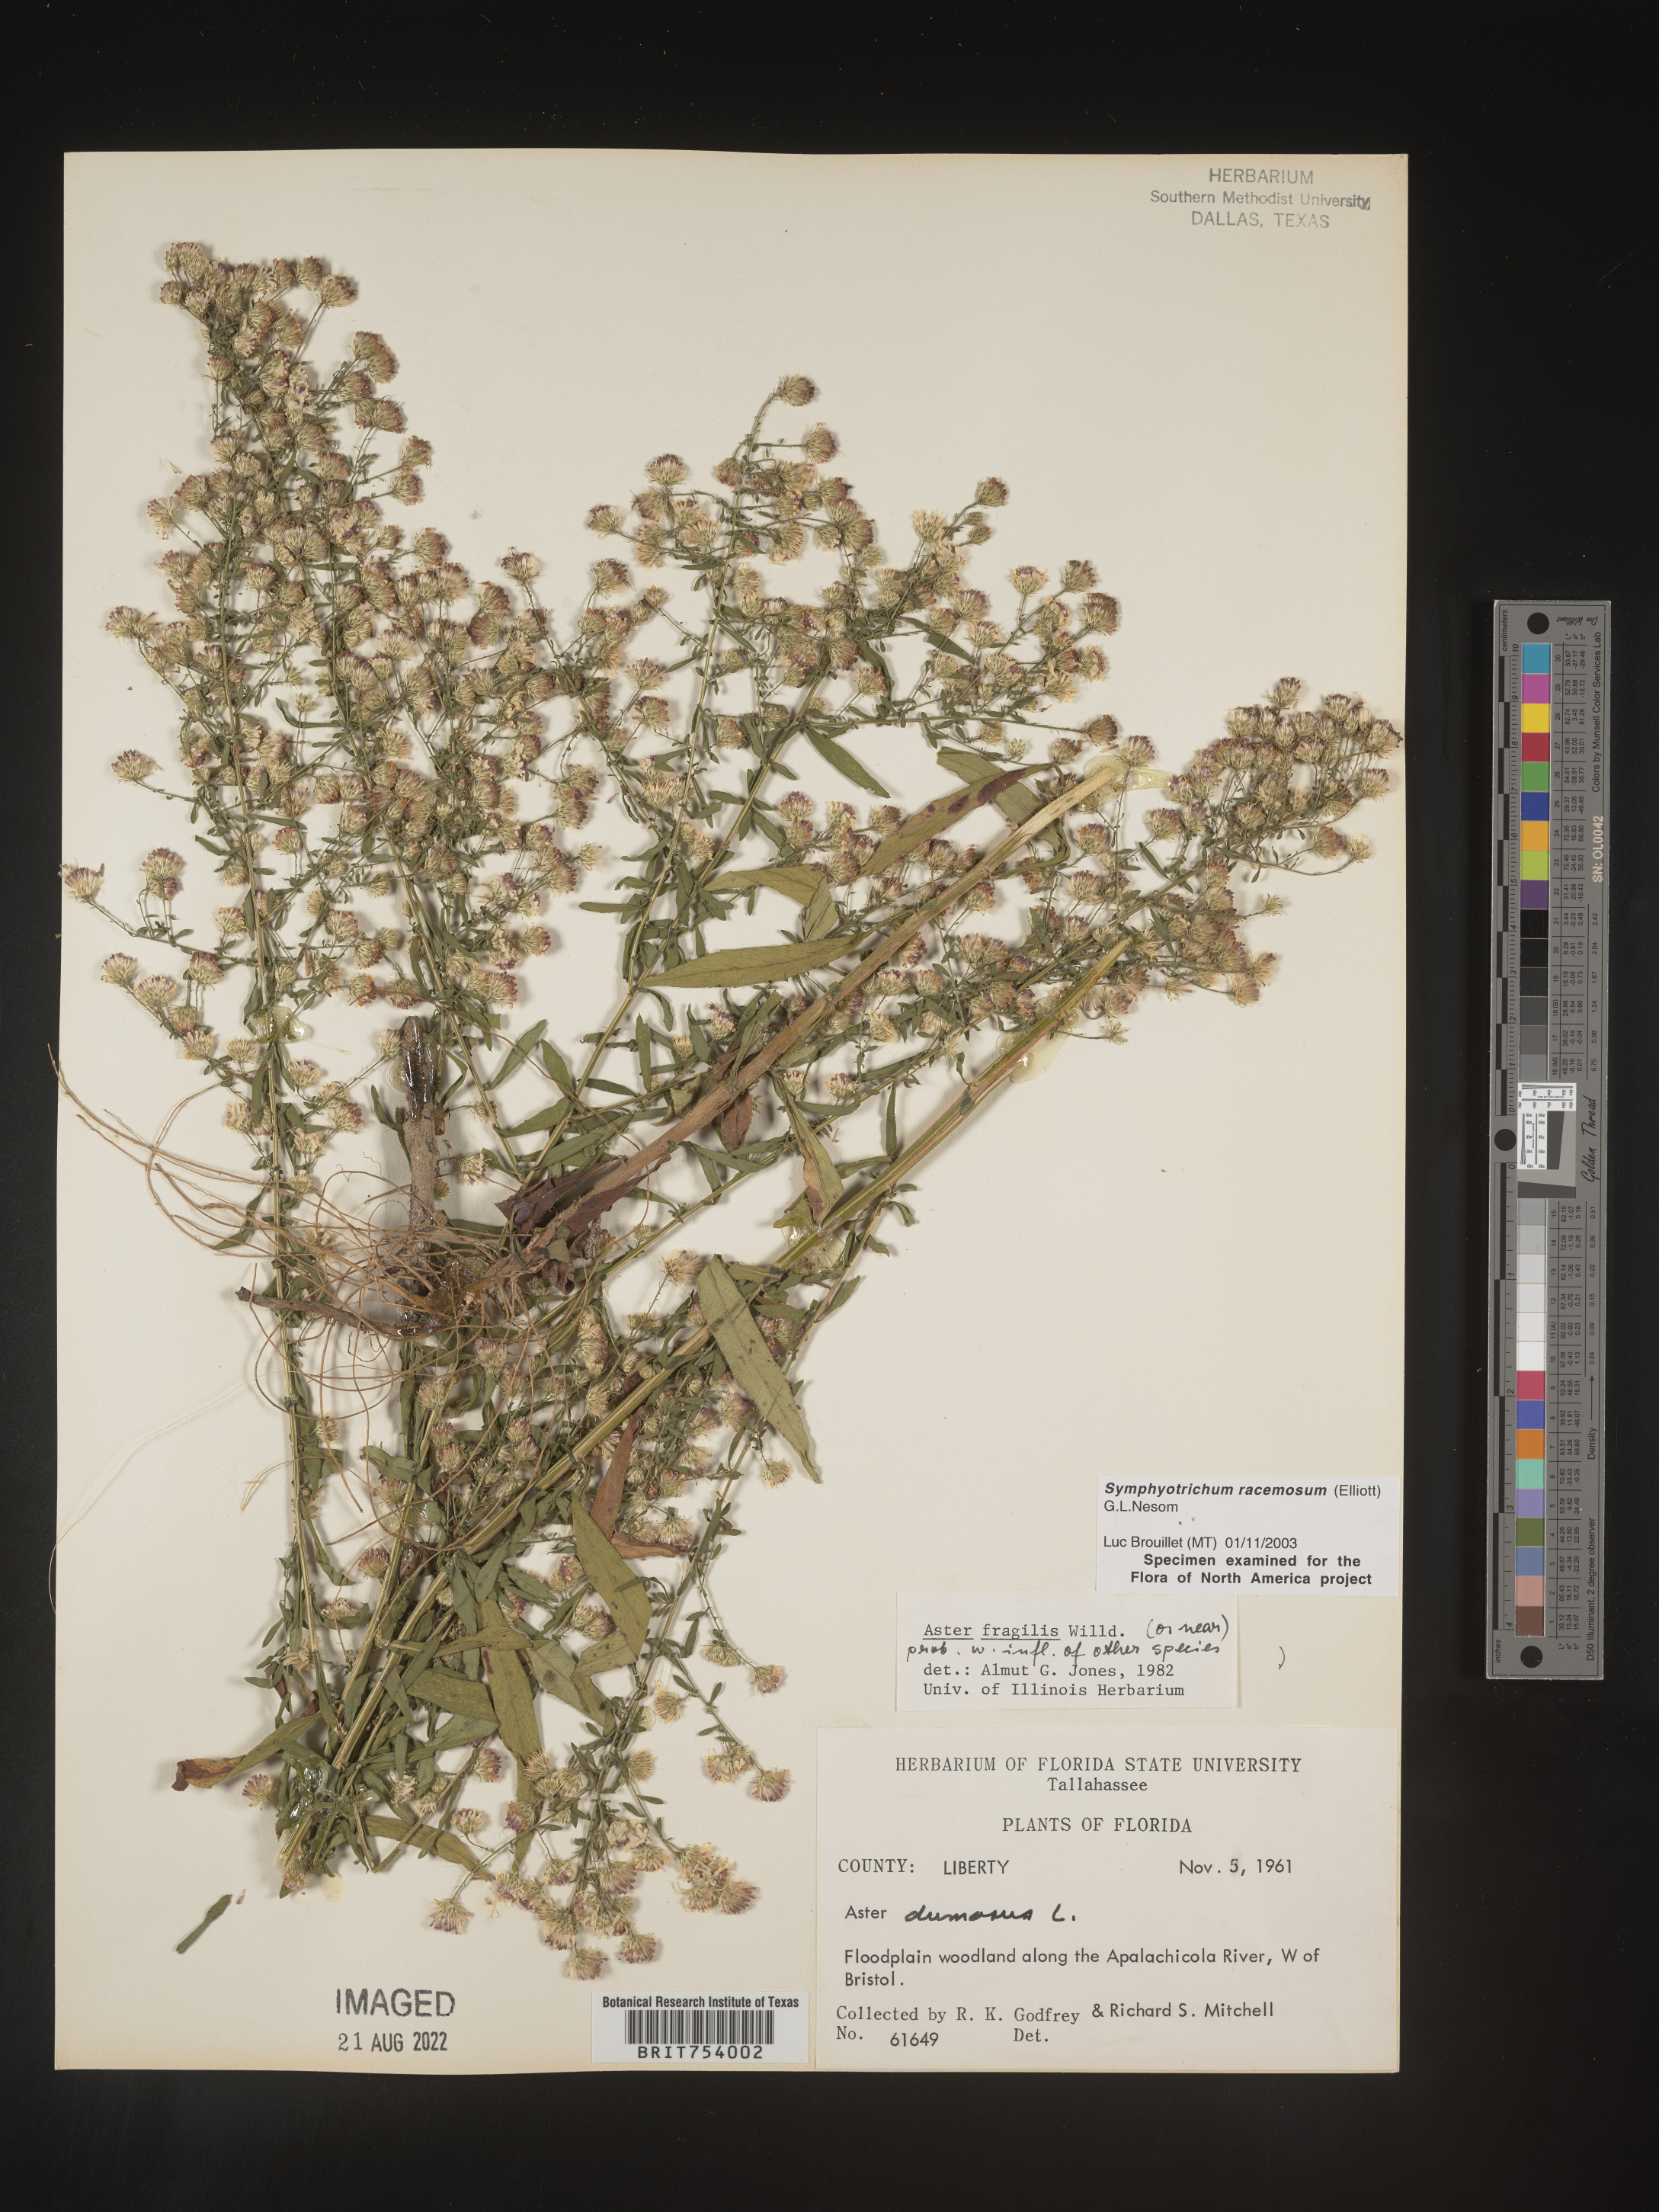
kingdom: Plantae
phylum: Tracheophyta
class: Magnoliopsida
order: Asterales
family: Asteraceae
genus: Symphyotrichum
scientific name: Symphyotrichum racemosum
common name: Small white aster
